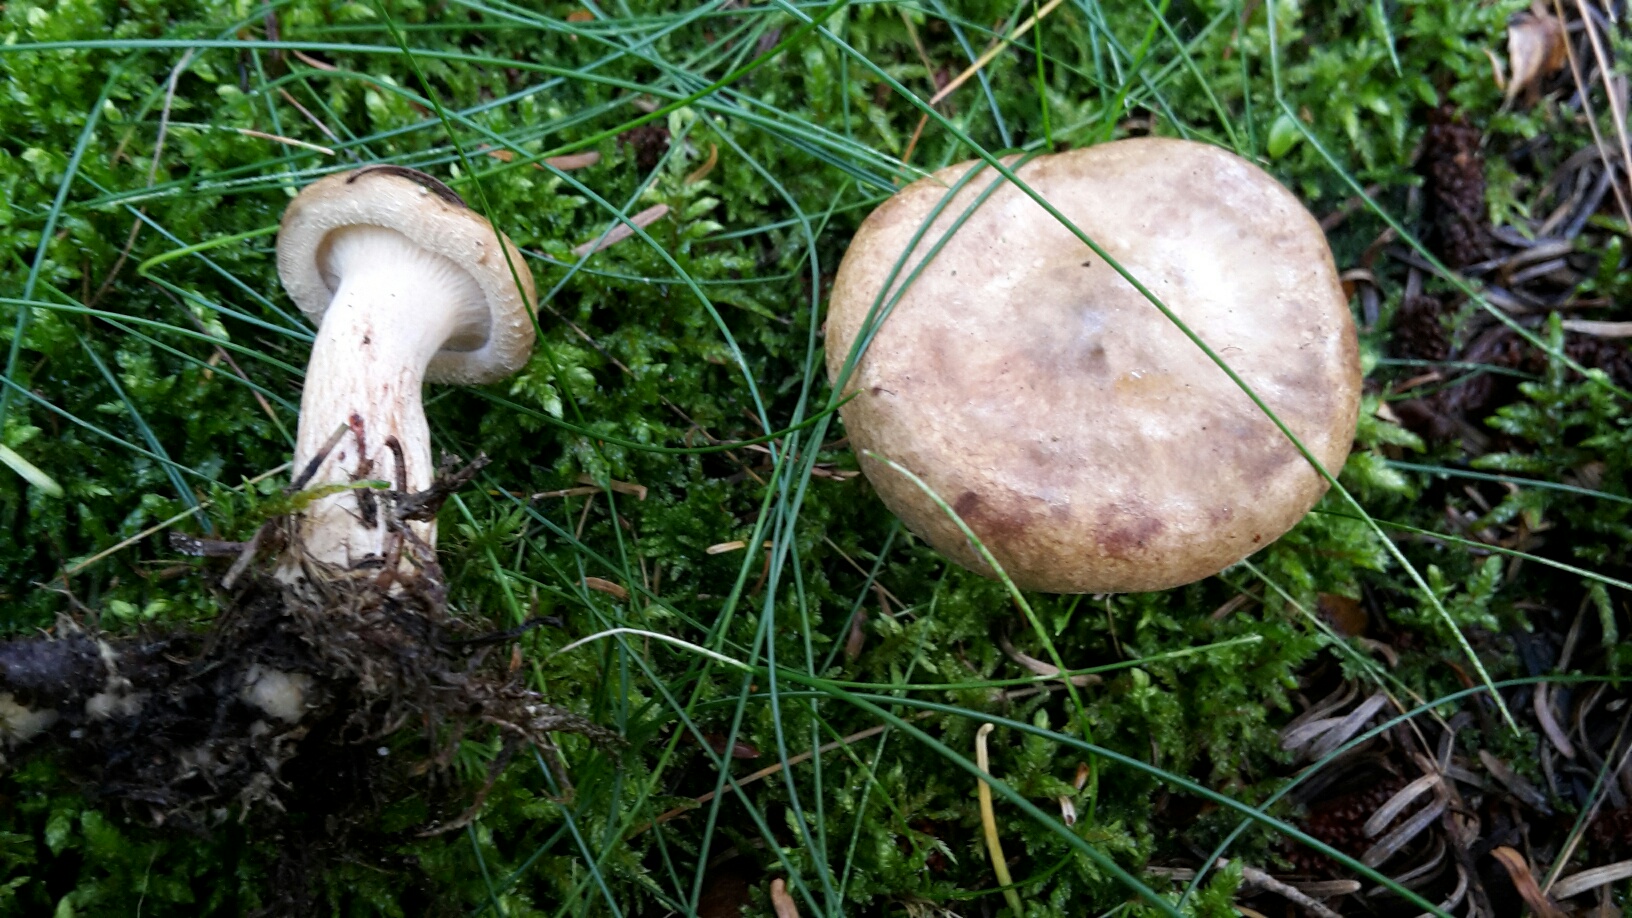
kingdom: Fungi
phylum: Basidiomycota
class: Agaricomycetes
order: Boletales
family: Paxillaceae
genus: Paxillus
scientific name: Paxillus involutus
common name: almindelig netbladhat
